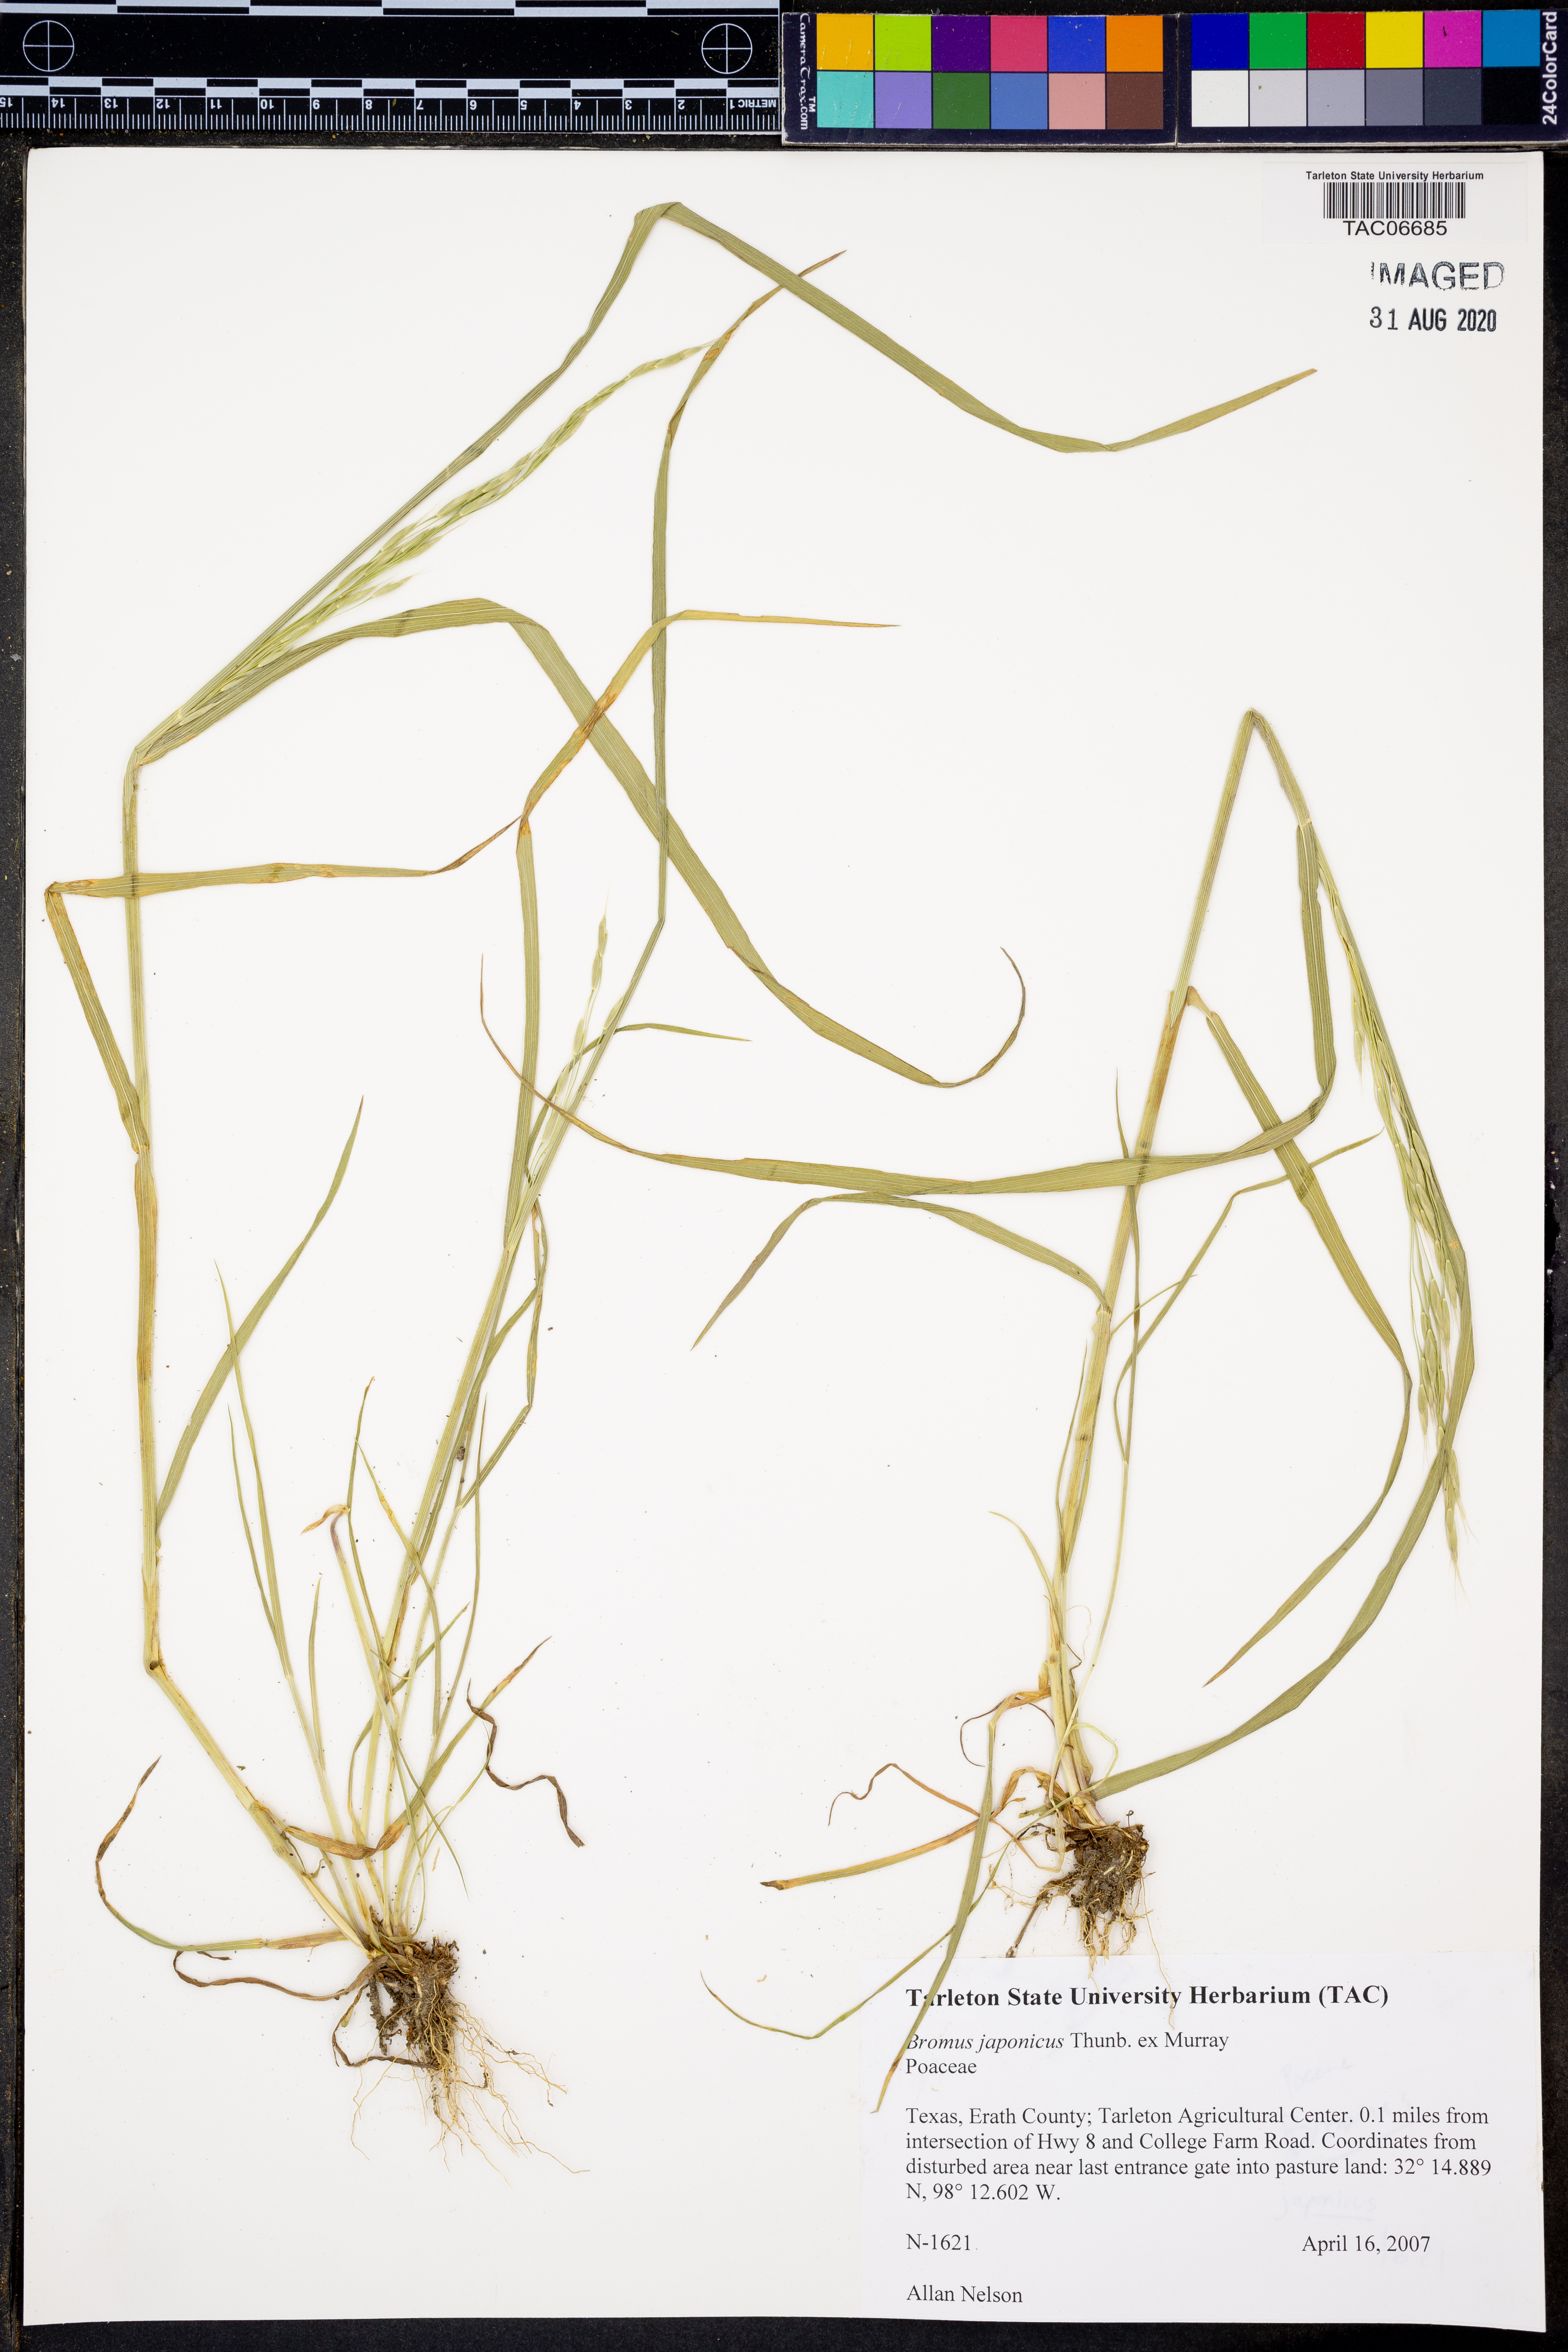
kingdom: Plantae
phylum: Tracheophyta
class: Liliopsida
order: Poales
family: Poaceae
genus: Bromus
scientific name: Bromus japonicus
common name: Japanese brome
